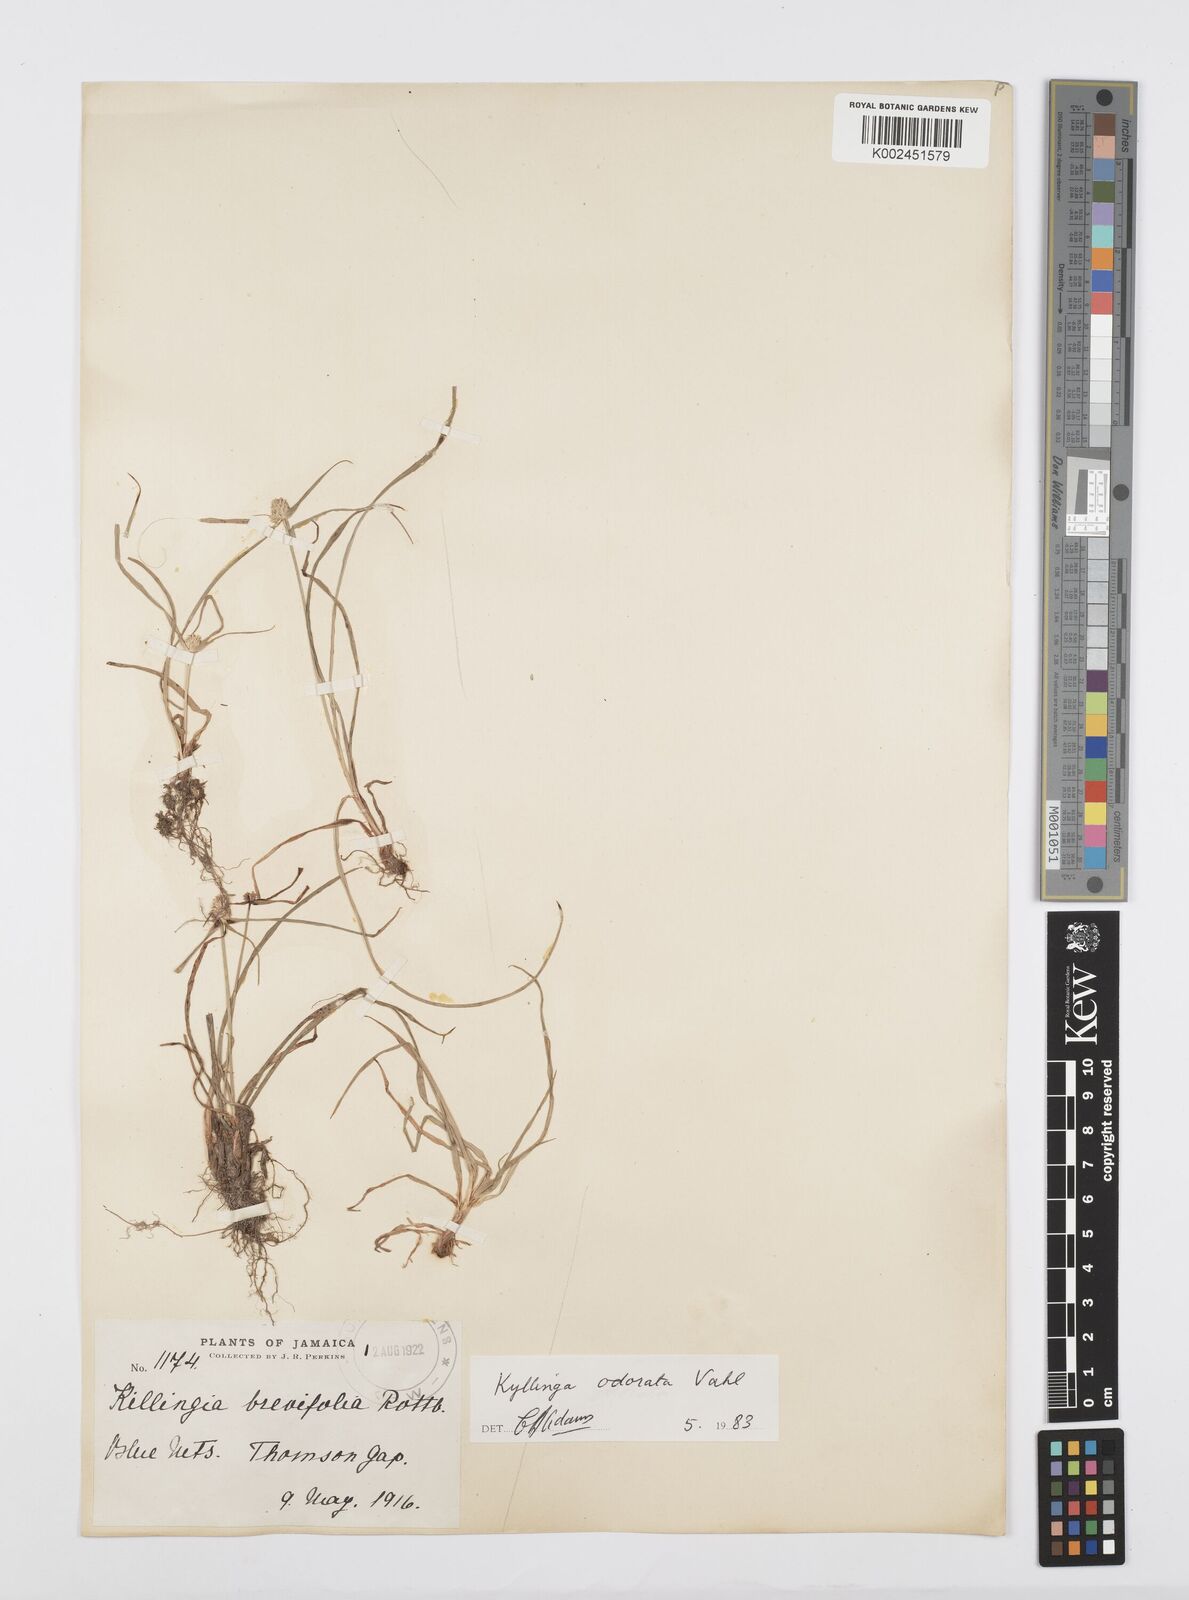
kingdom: Plantae
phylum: Tracheophyta
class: Liliopsida
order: Poales
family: Cyperaceae
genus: Cyperus
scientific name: Cyperus
